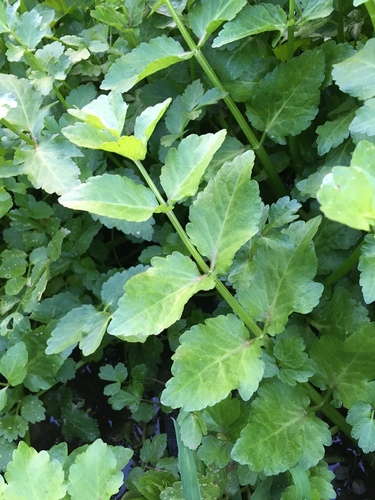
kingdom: Plantae
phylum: Tracheophyta
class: Magnoliopsida
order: Apiales
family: Apiaceae
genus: Helosciadium
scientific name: Helosciadium nodiflorum
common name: Fool's-watercress
